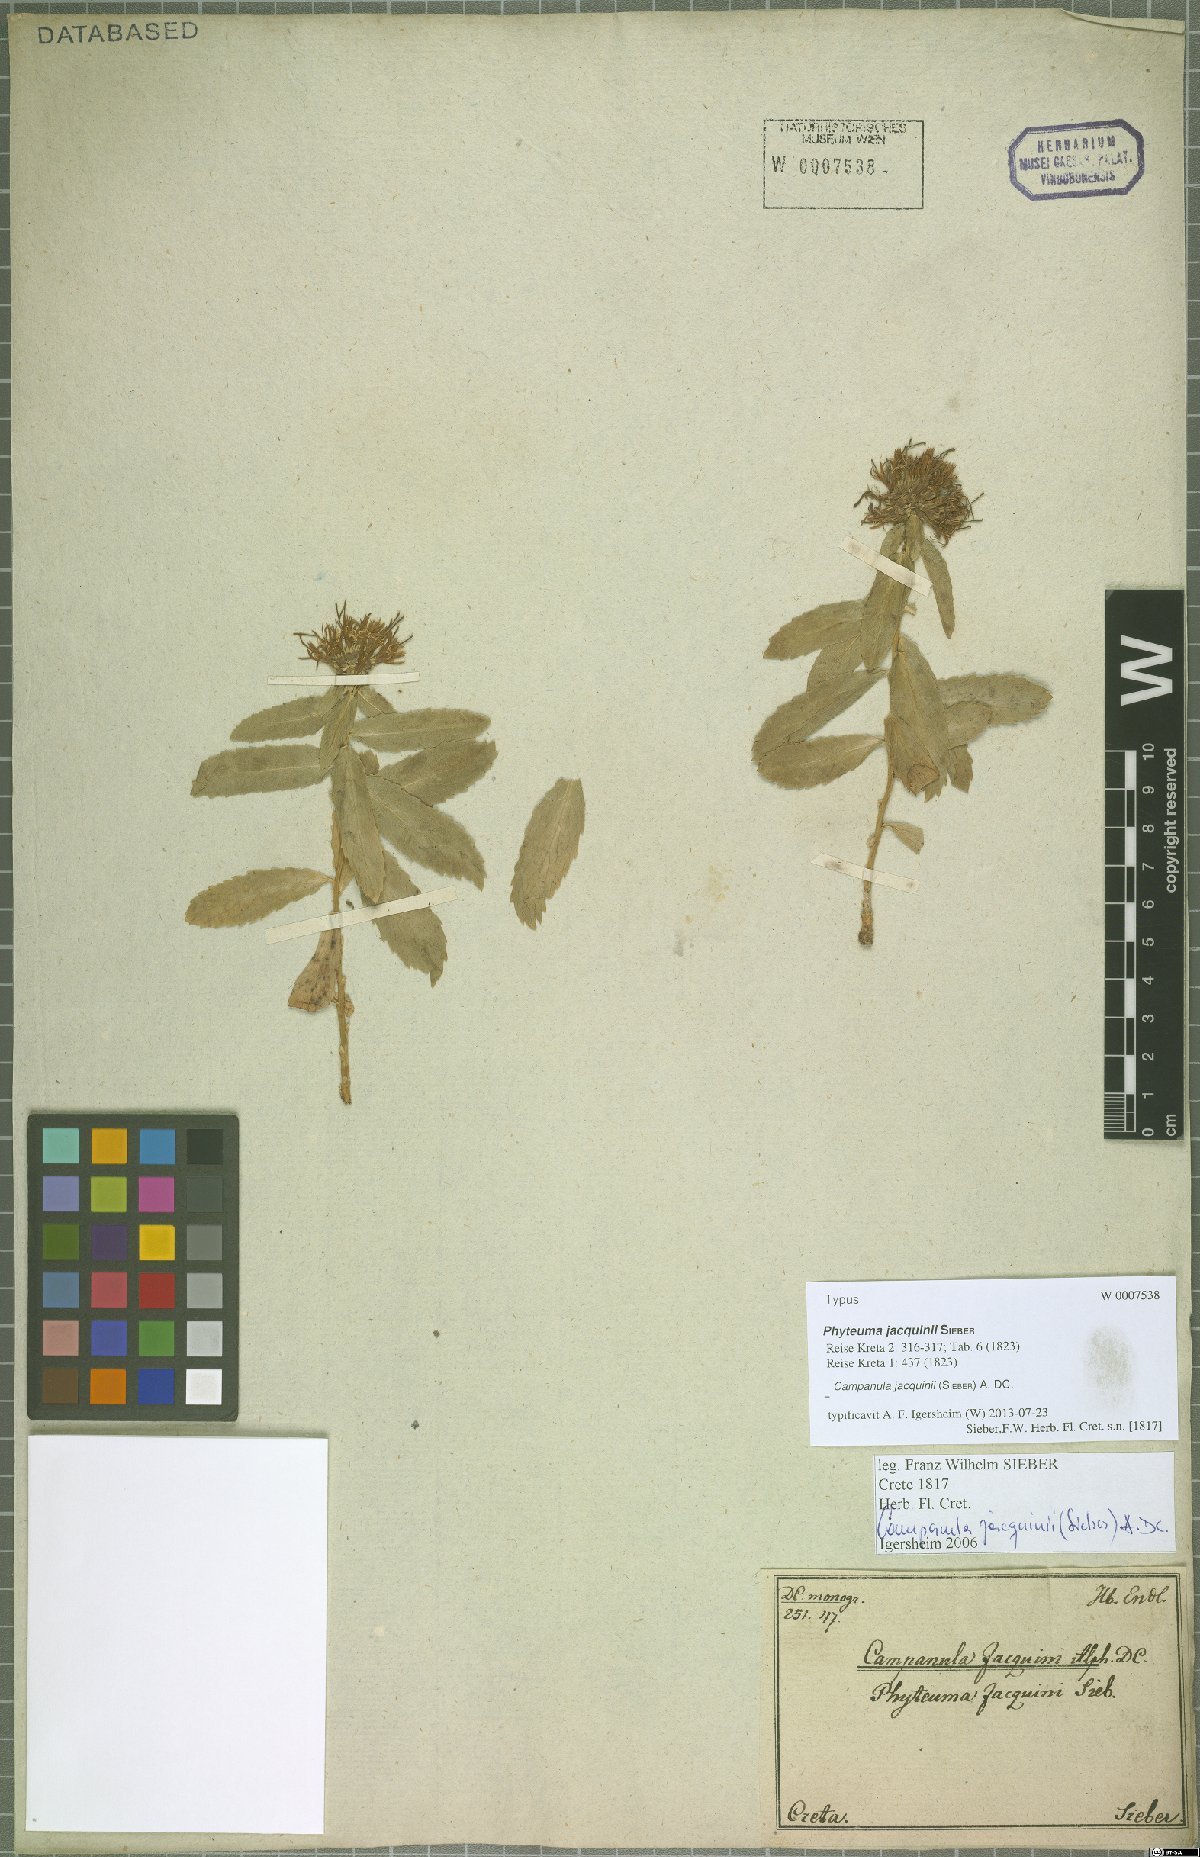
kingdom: Plantae
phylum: Tracheophyta
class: Magnoliopsida
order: Asterales
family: Campanulaceae
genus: Campanula
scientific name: Campanula jacquinii
